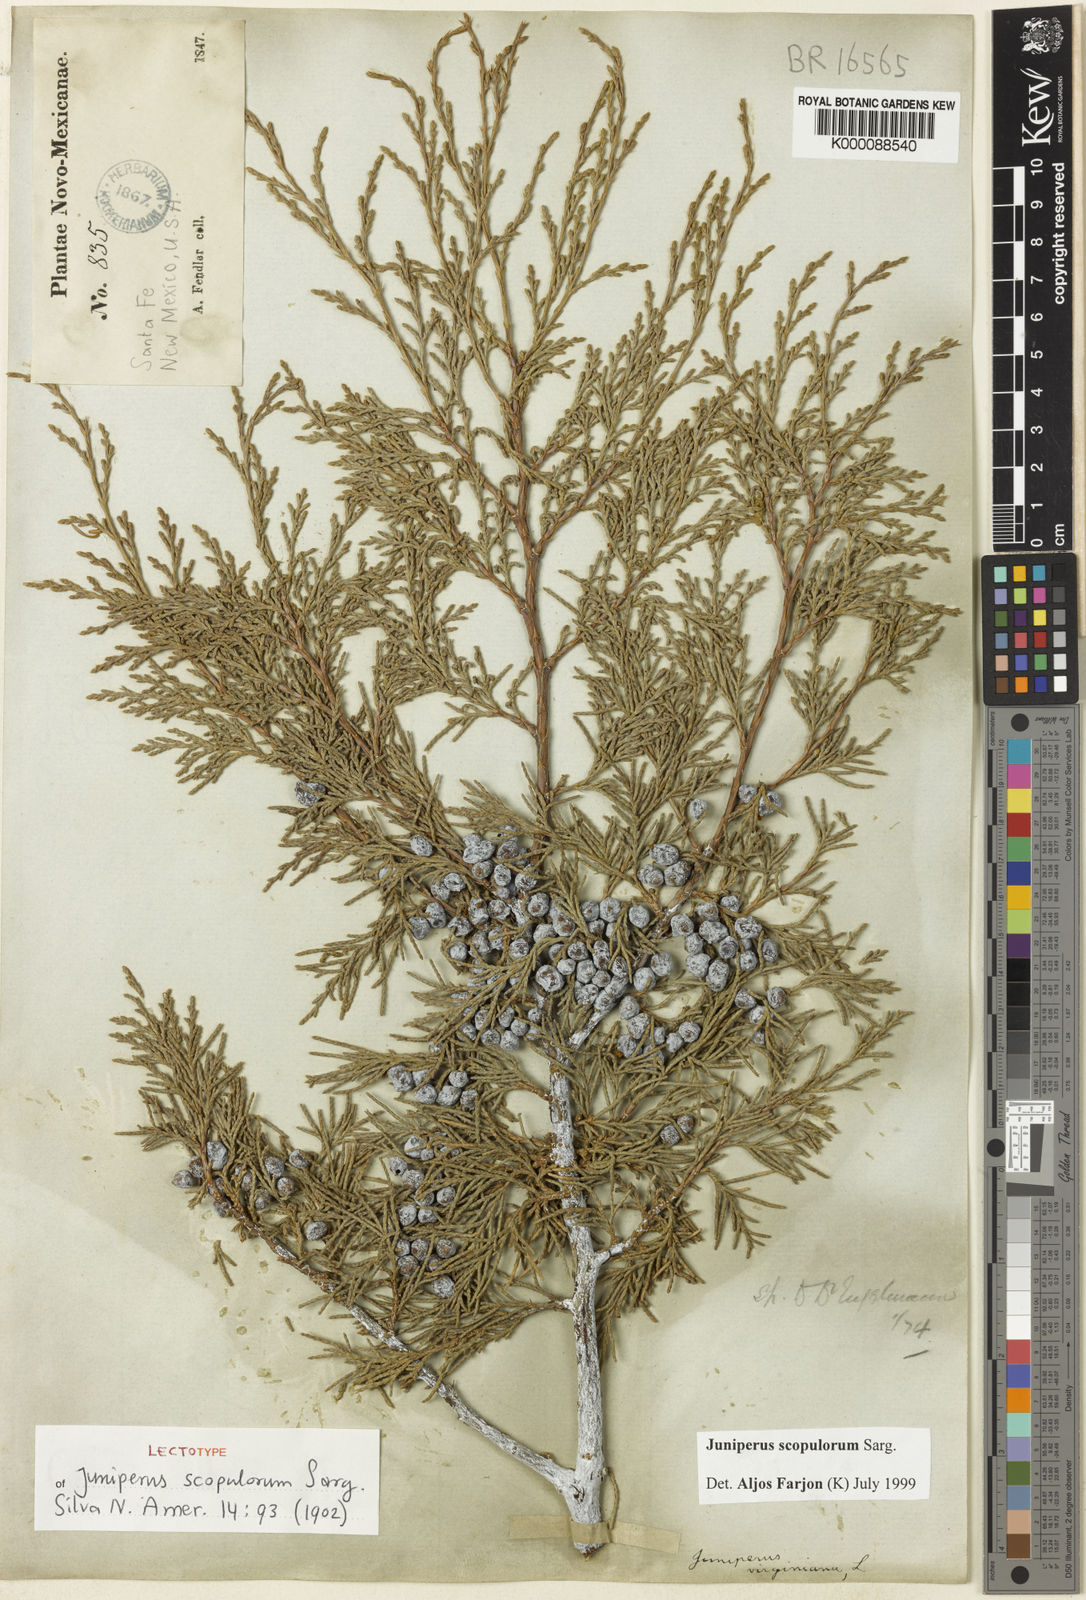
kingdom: Plantae
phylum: Tracheophyta
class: Pinopsida
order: Pinales
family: Cupressaceae
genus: Juniperus
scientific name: Juniperus scopulorum
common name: Rocky mountain juniper
